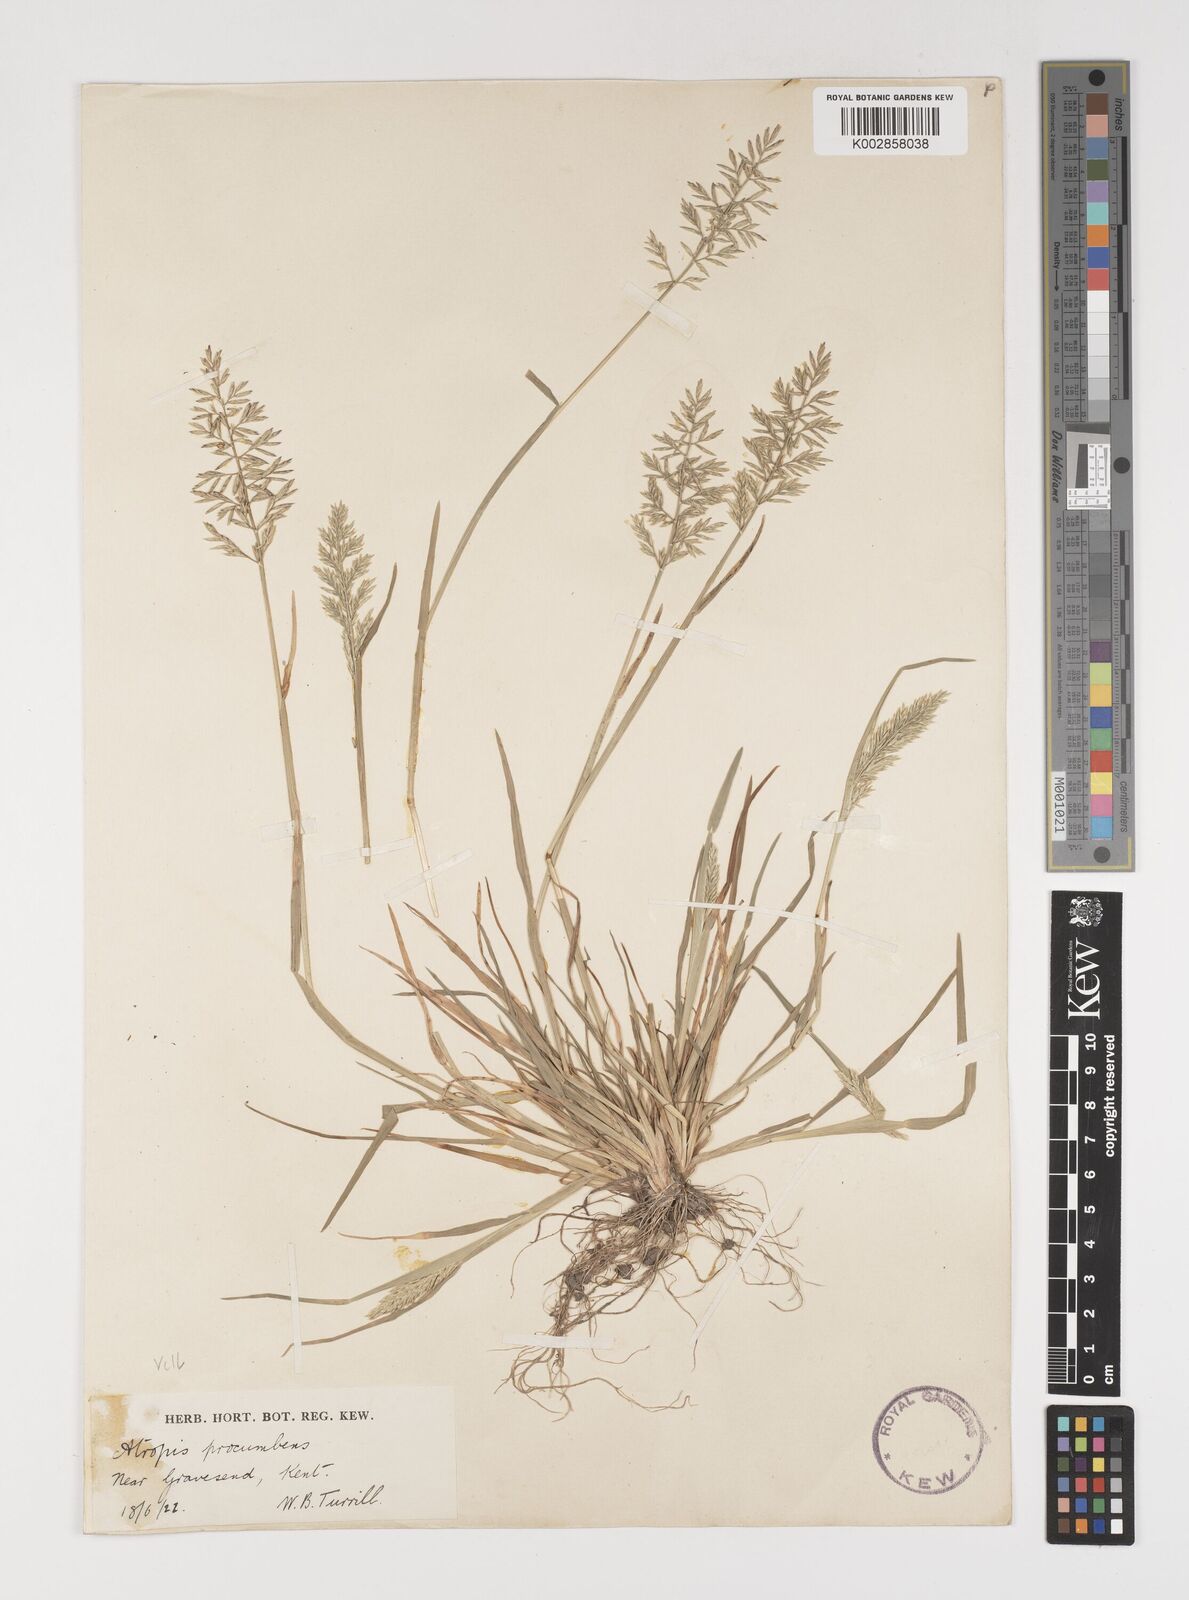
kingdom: Plantae
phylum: Tracheophyta
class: Liliopsida
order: Poales
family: Poaceae
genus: Puccinellia
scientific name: Puccinellia rupestris
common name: Stiff saltmarsh-grass
